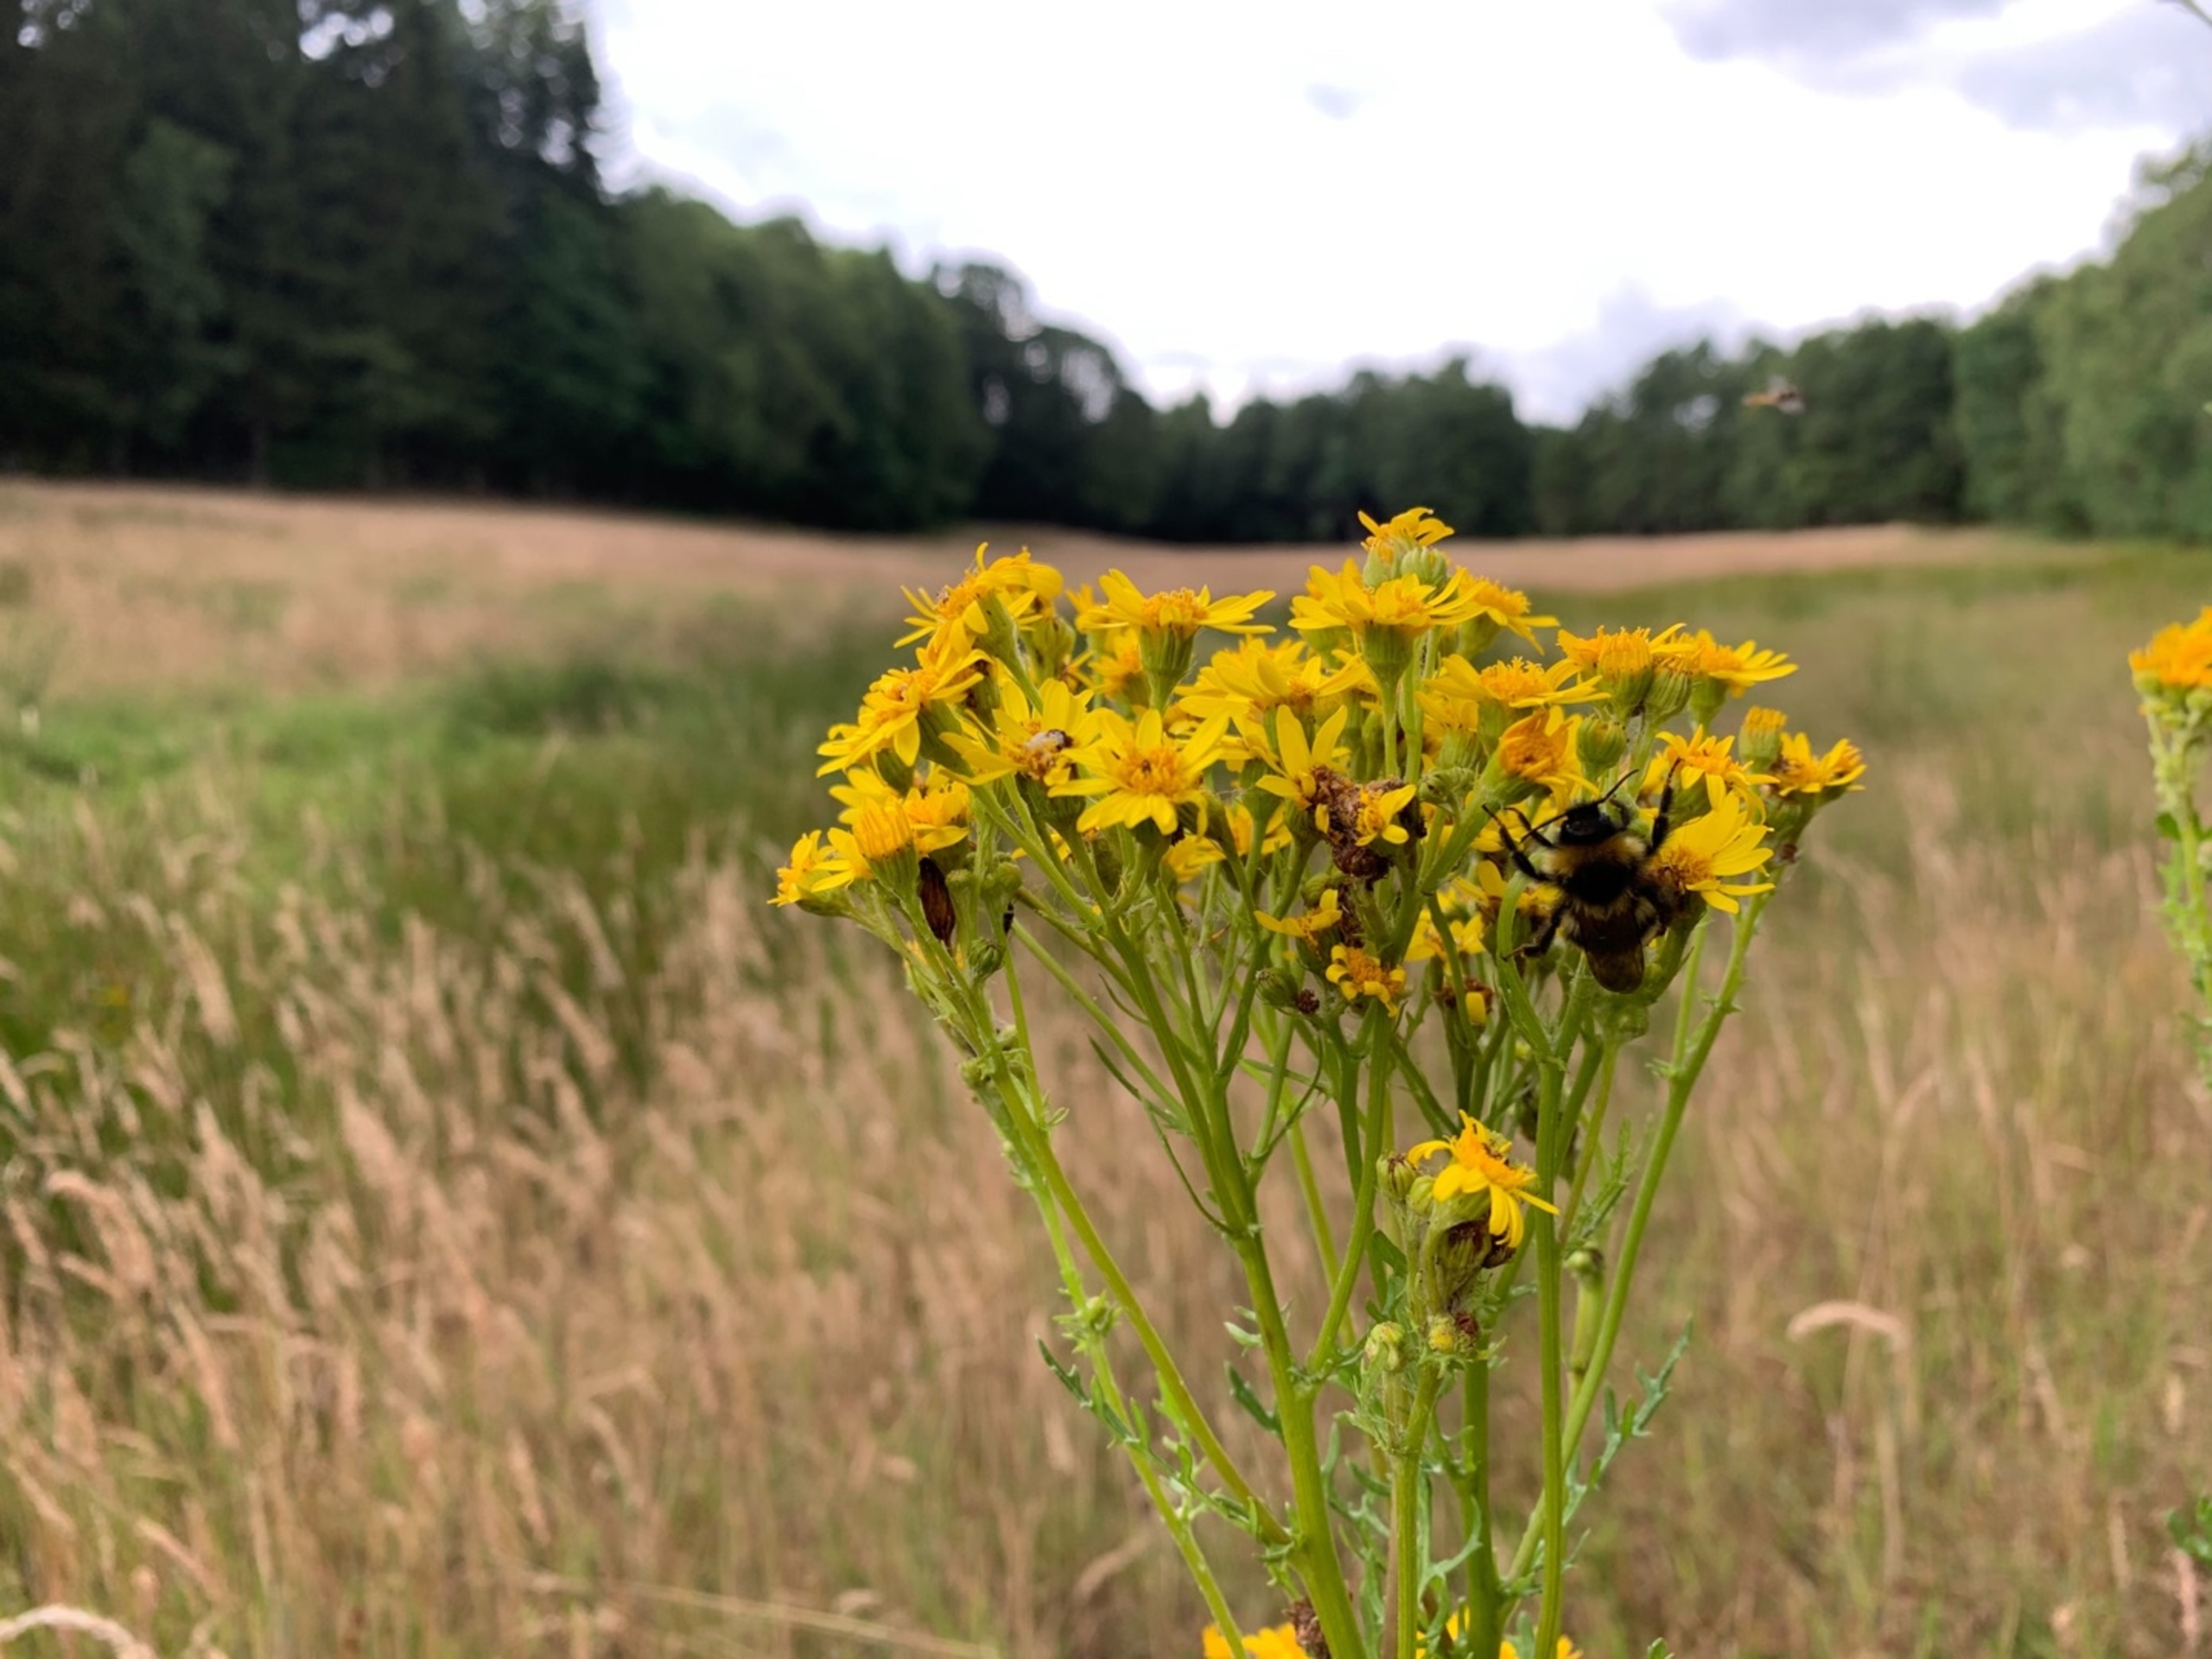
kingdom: Plantae
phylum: Tracheophyta
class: Magnoliopsida
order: Asterales
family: Asteraceae
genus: Jacobaea
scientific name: Jacobaea vulgaris
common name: Eng-brandbæger
